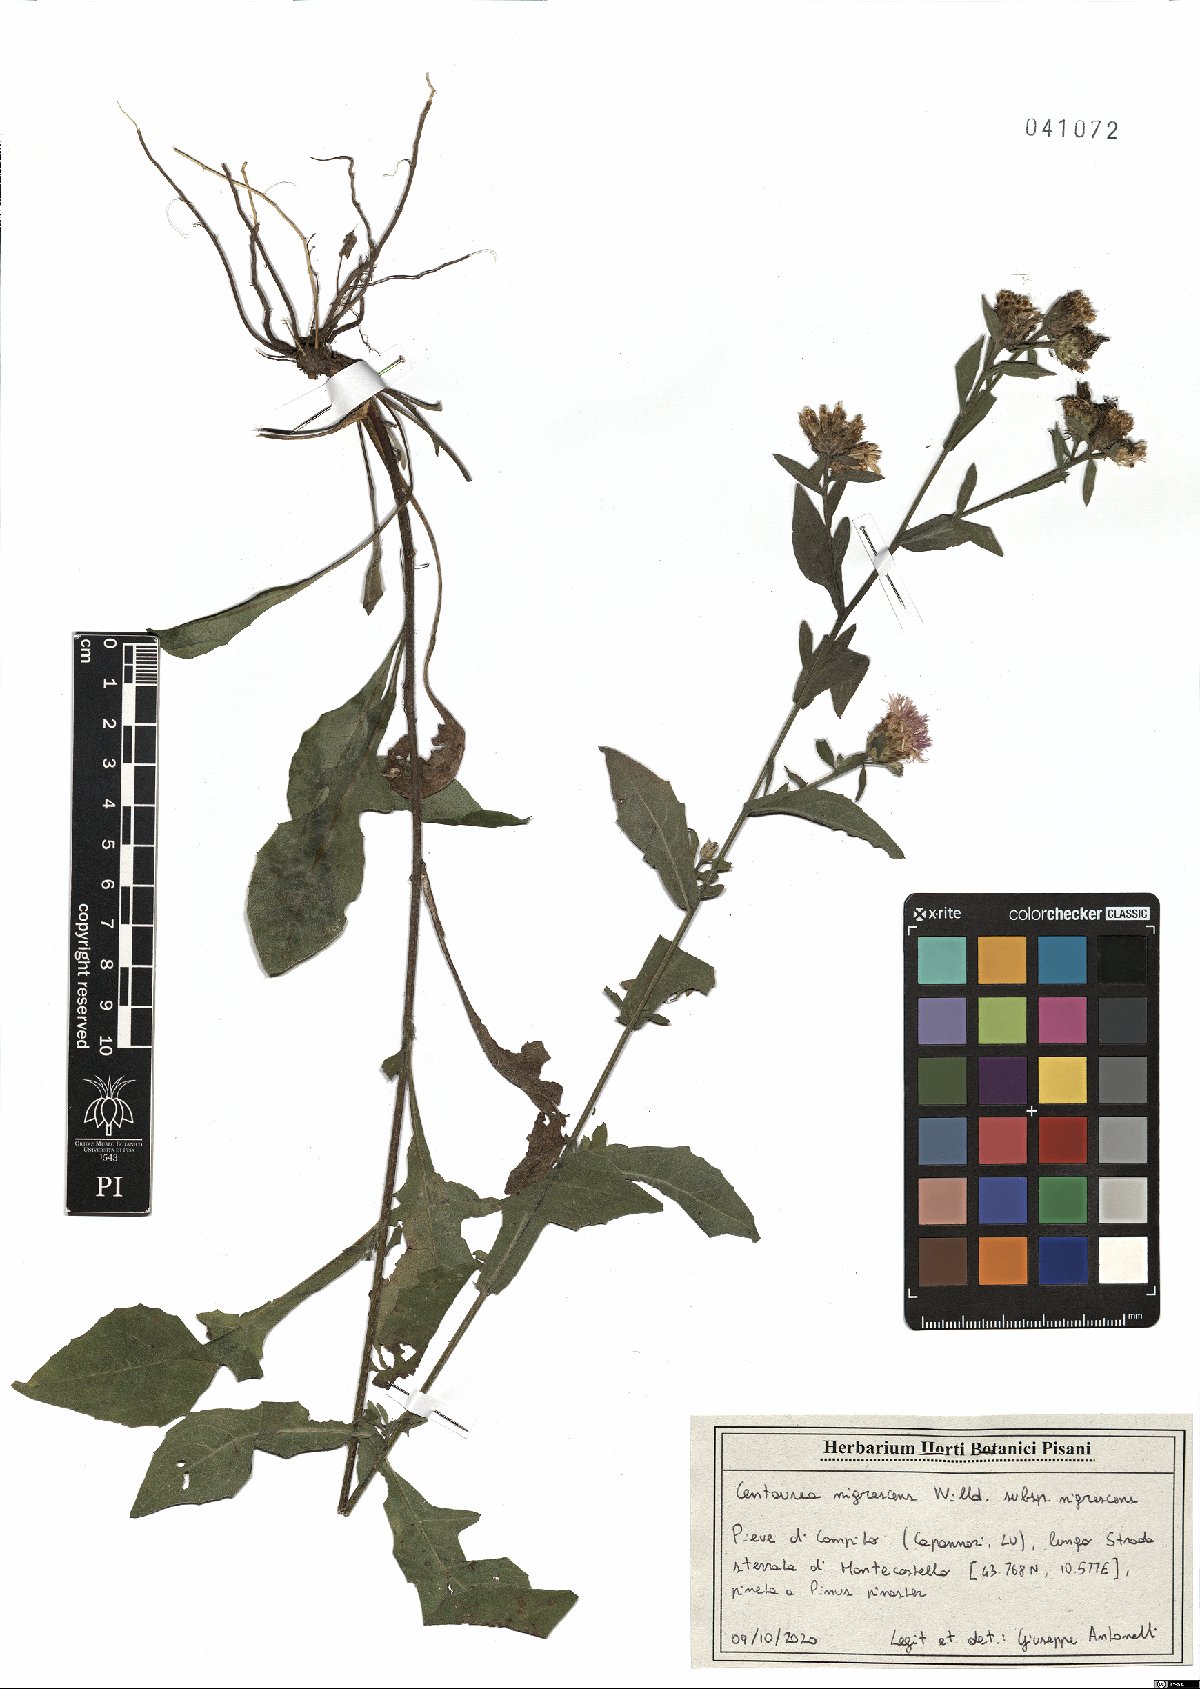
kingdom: Plantae
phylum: Tracheophyta
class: Magnoliopsida
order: Asterales
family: Asteraceae
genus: Centaurea
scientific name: Centaurea nigrescens
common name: Tyrol knapweed
